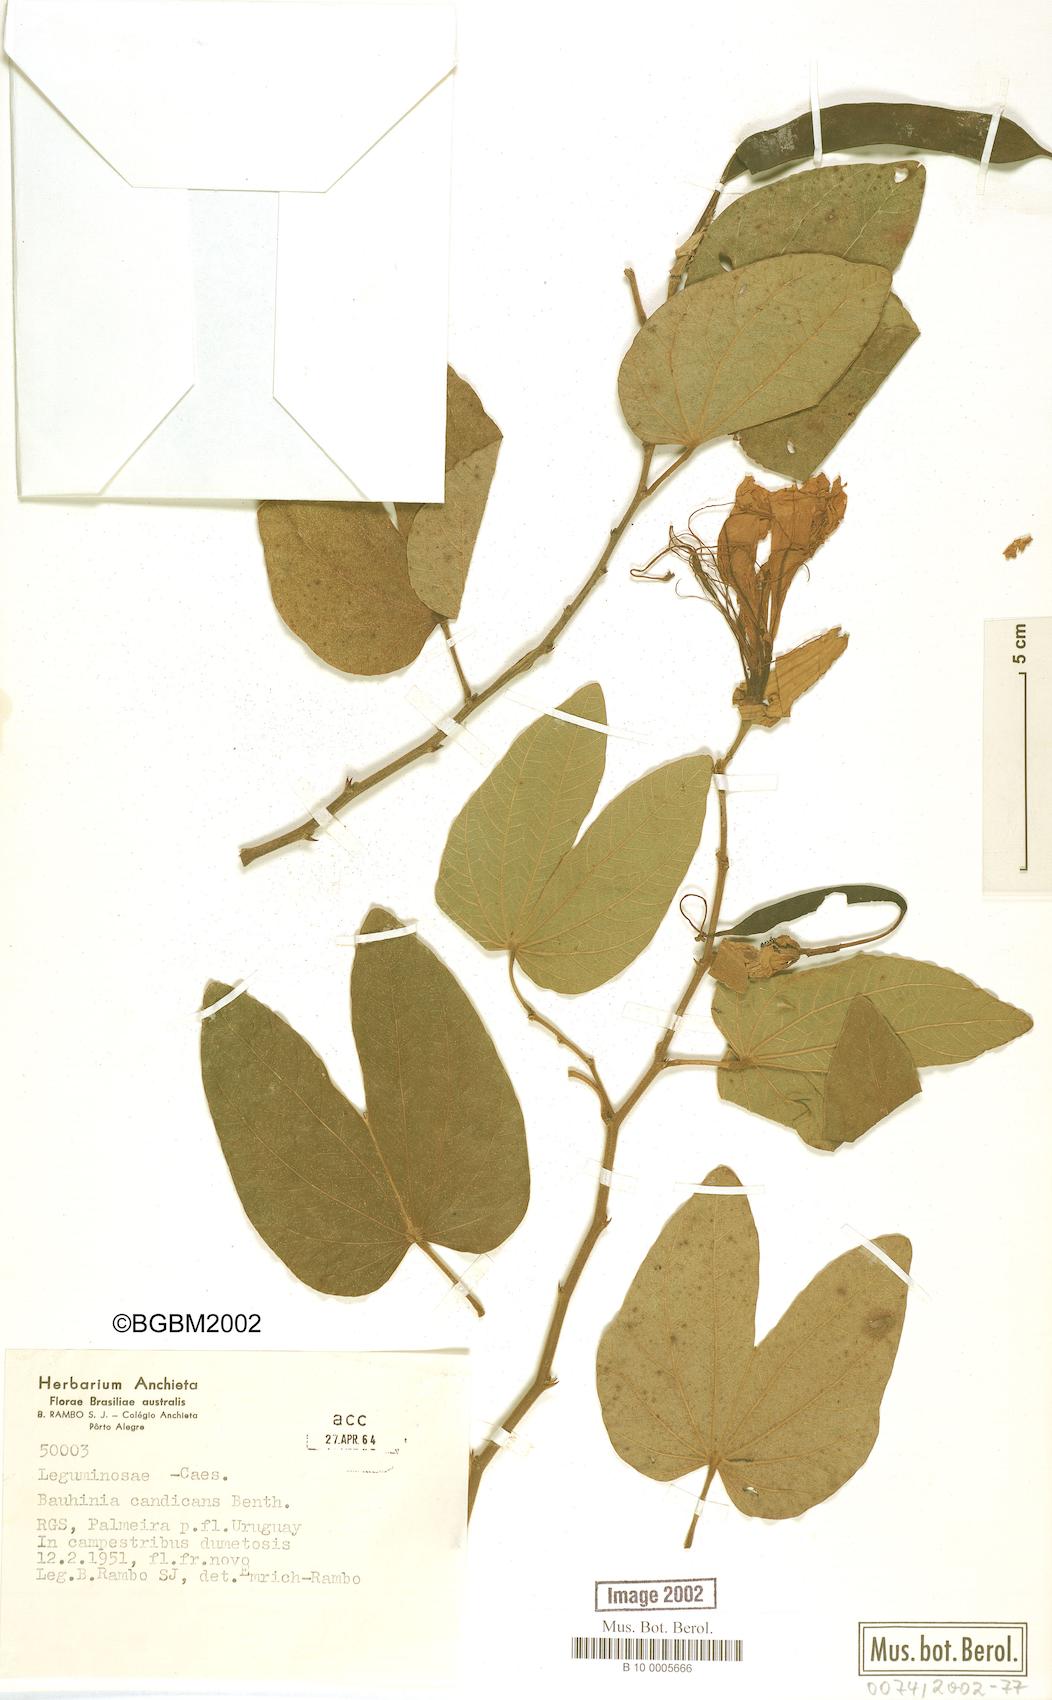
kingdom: Plantae
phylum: Tracheophyta
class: Magnoliopsida
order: Fabales
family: Fabaceae
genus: Bauhinia
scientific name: Bauhinia forficata
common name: Orchid tree
